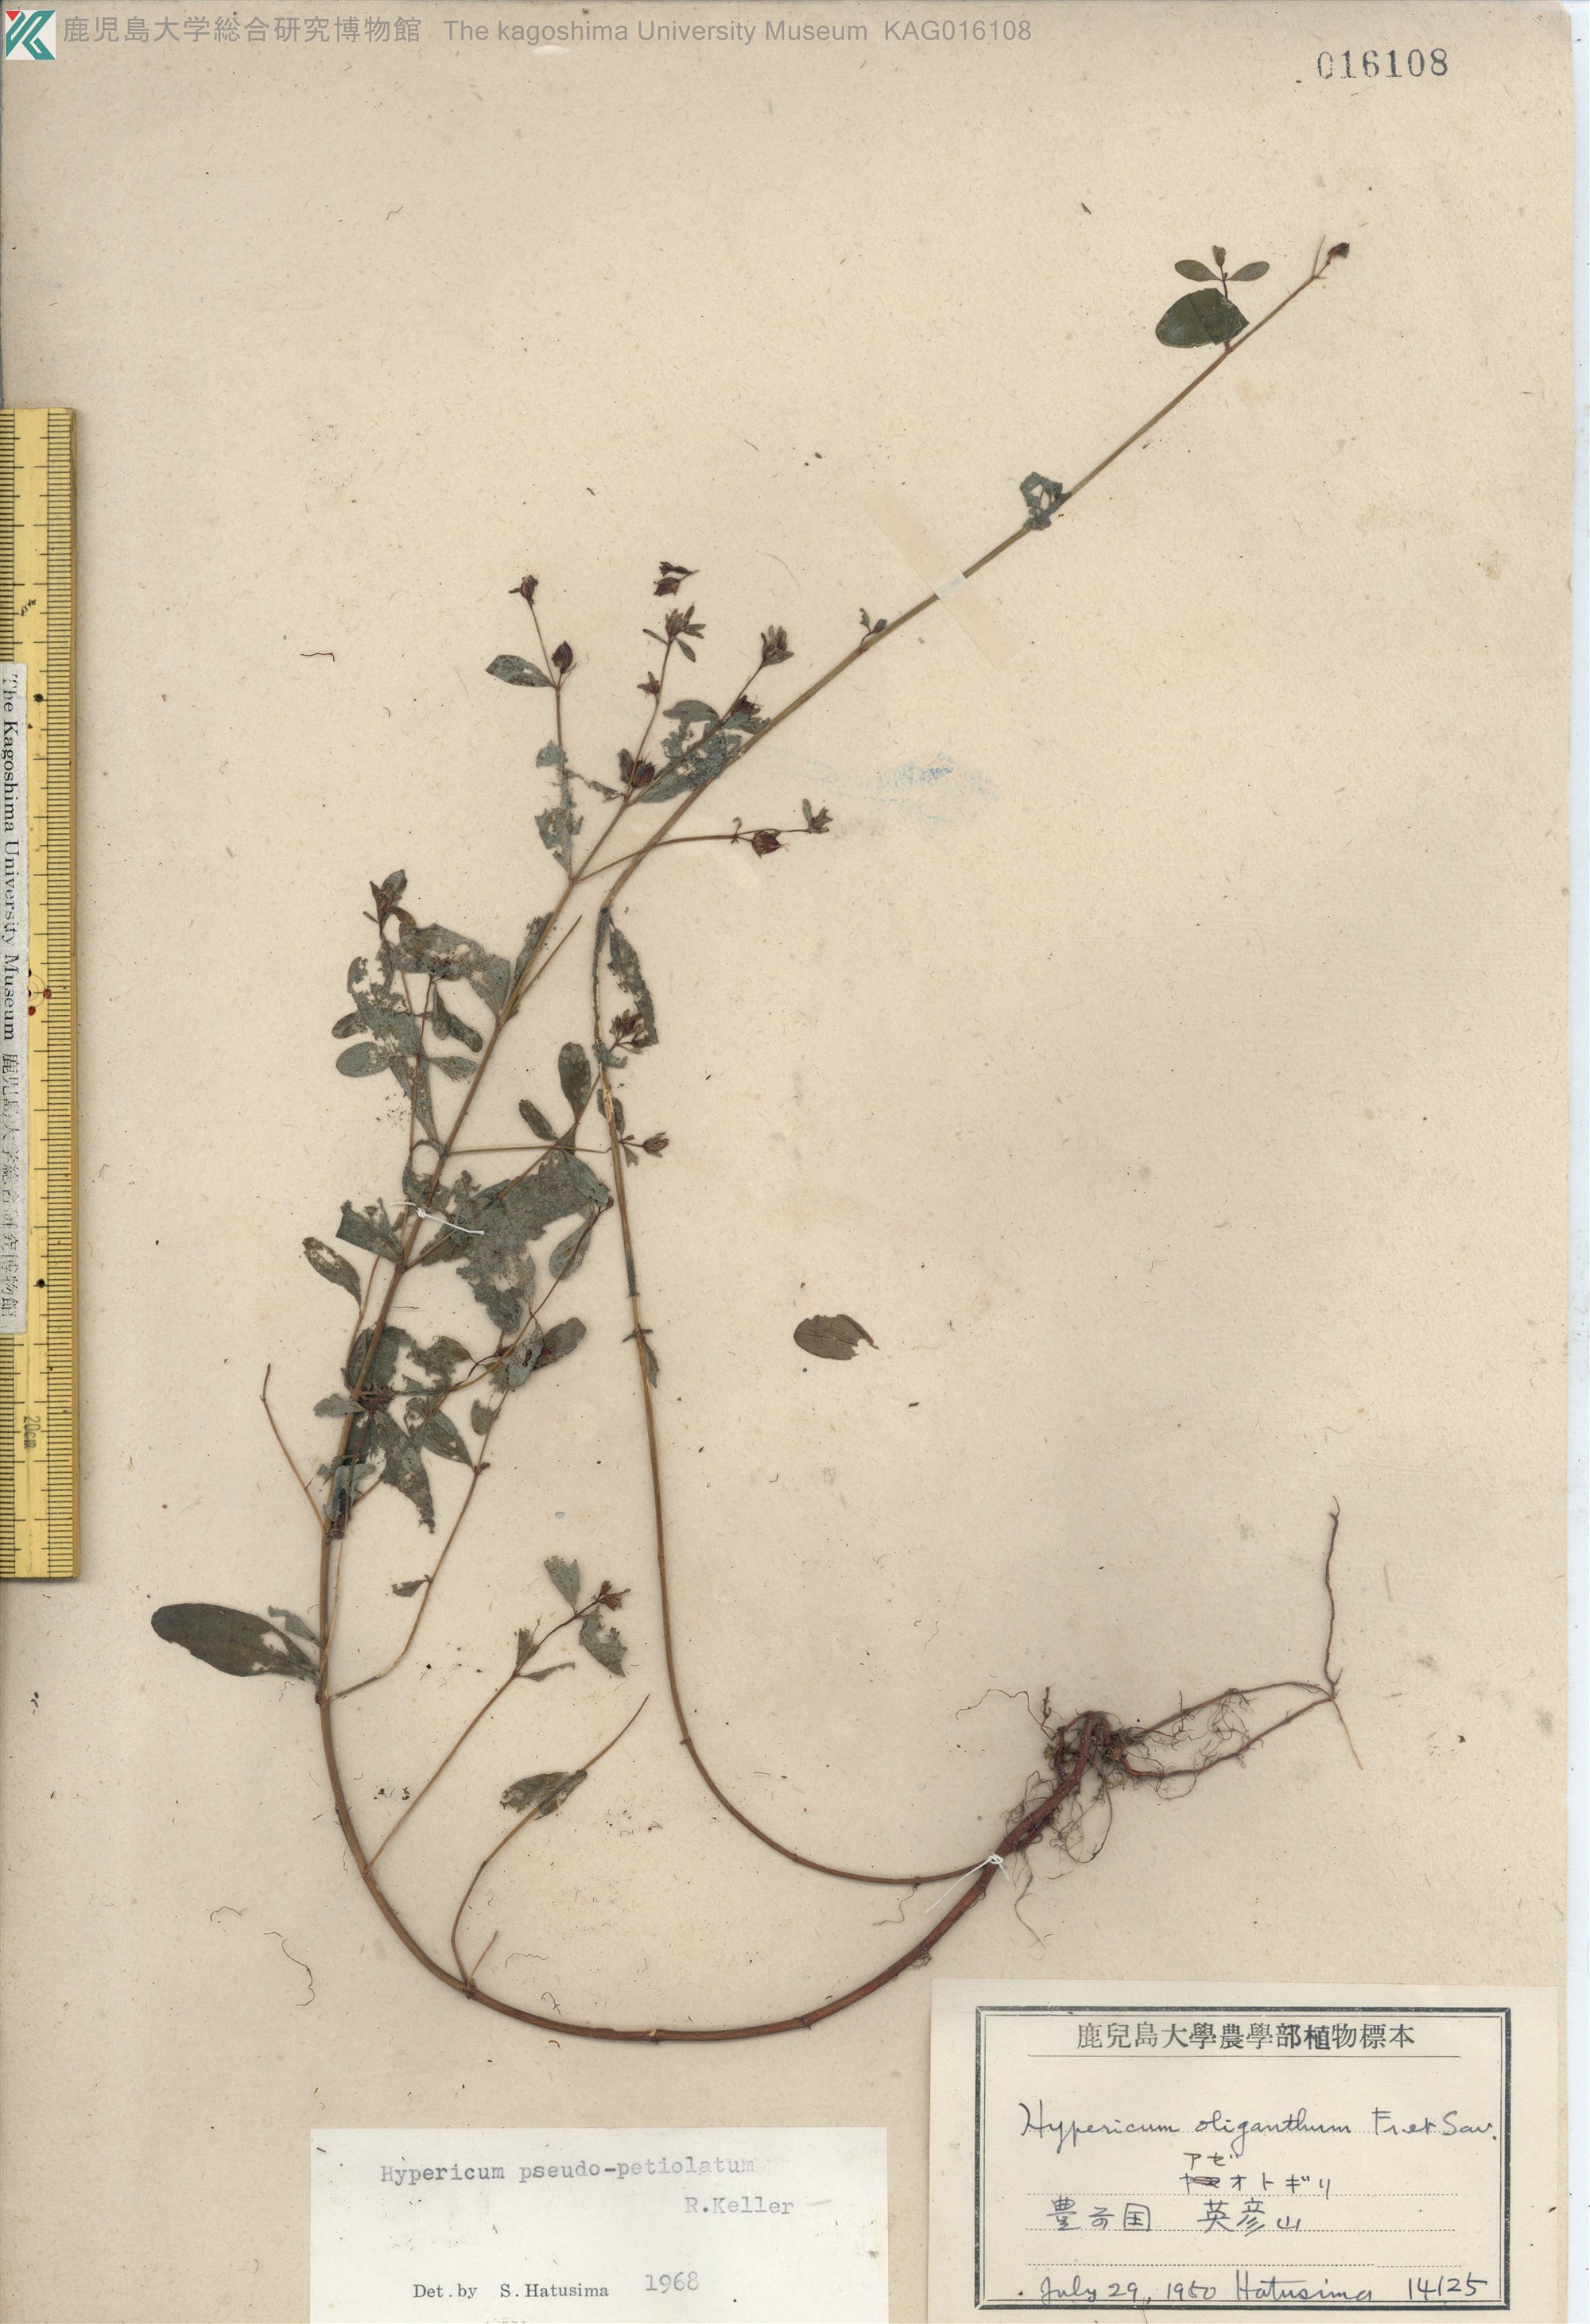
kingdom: Plantae
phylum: Tracheophyta
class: Magnoliopsida
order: Malpighiales
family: Hypericaceae
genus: Hypericum
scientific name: Hypericum pseudopetiolatum
